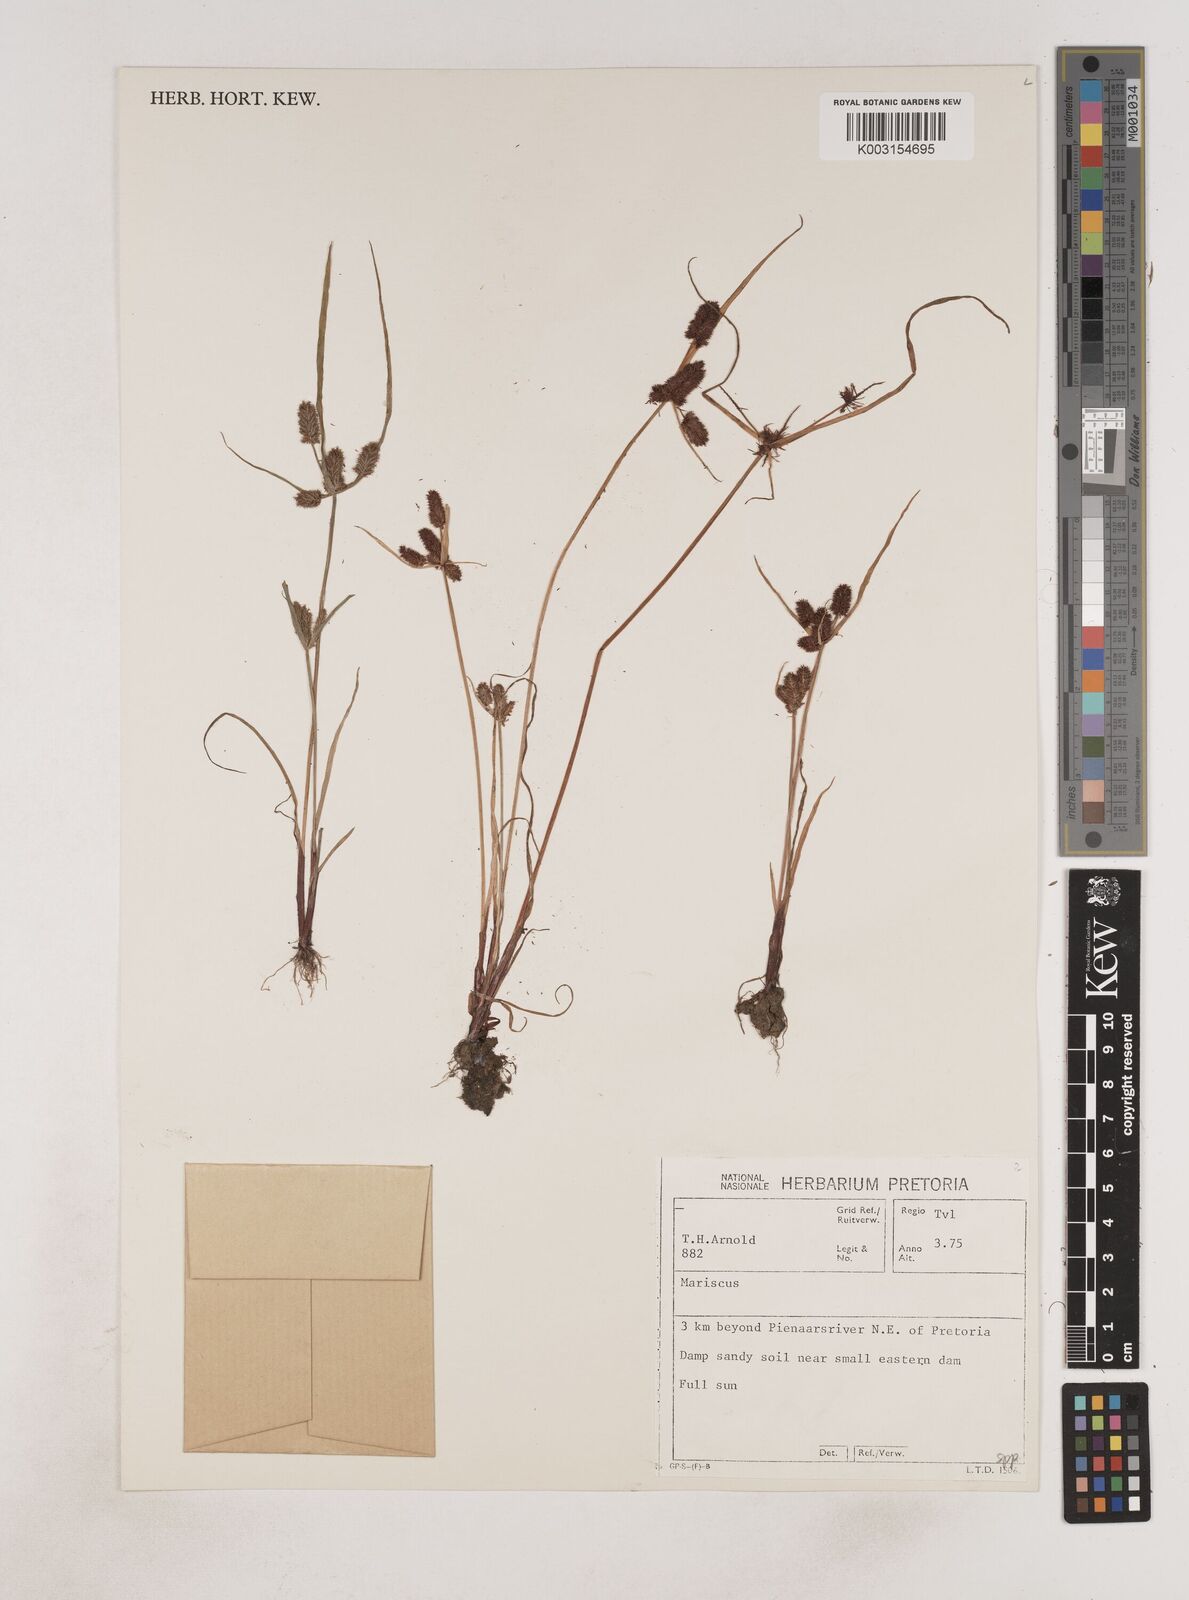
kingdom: Plantae
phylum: Tracheophyta
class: Liliopsida
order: Poales
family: Cyperaceae
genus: Cyperus
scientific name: Cyperus
